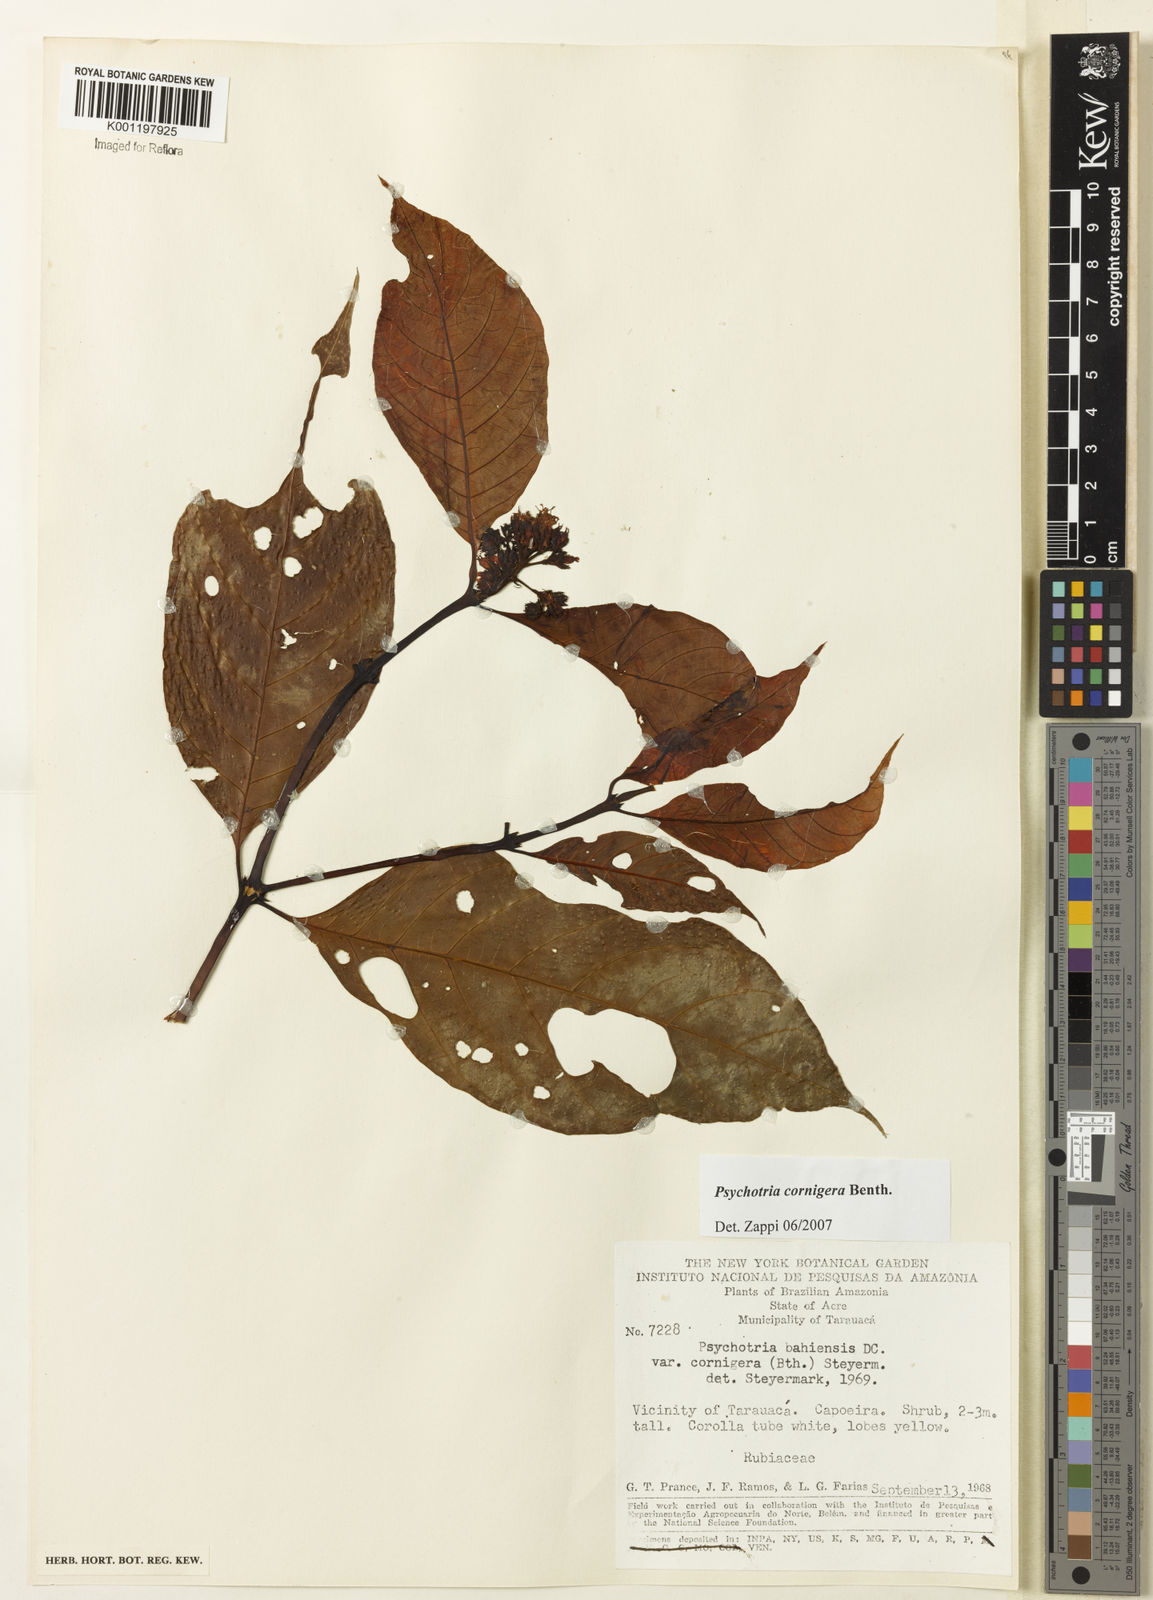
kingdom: Plantae
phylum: Tracheophyta
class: Magnoliopsida
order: Gentianales
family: Rubiaceae
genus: Psychotria
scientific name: Psychotria bahiensis
